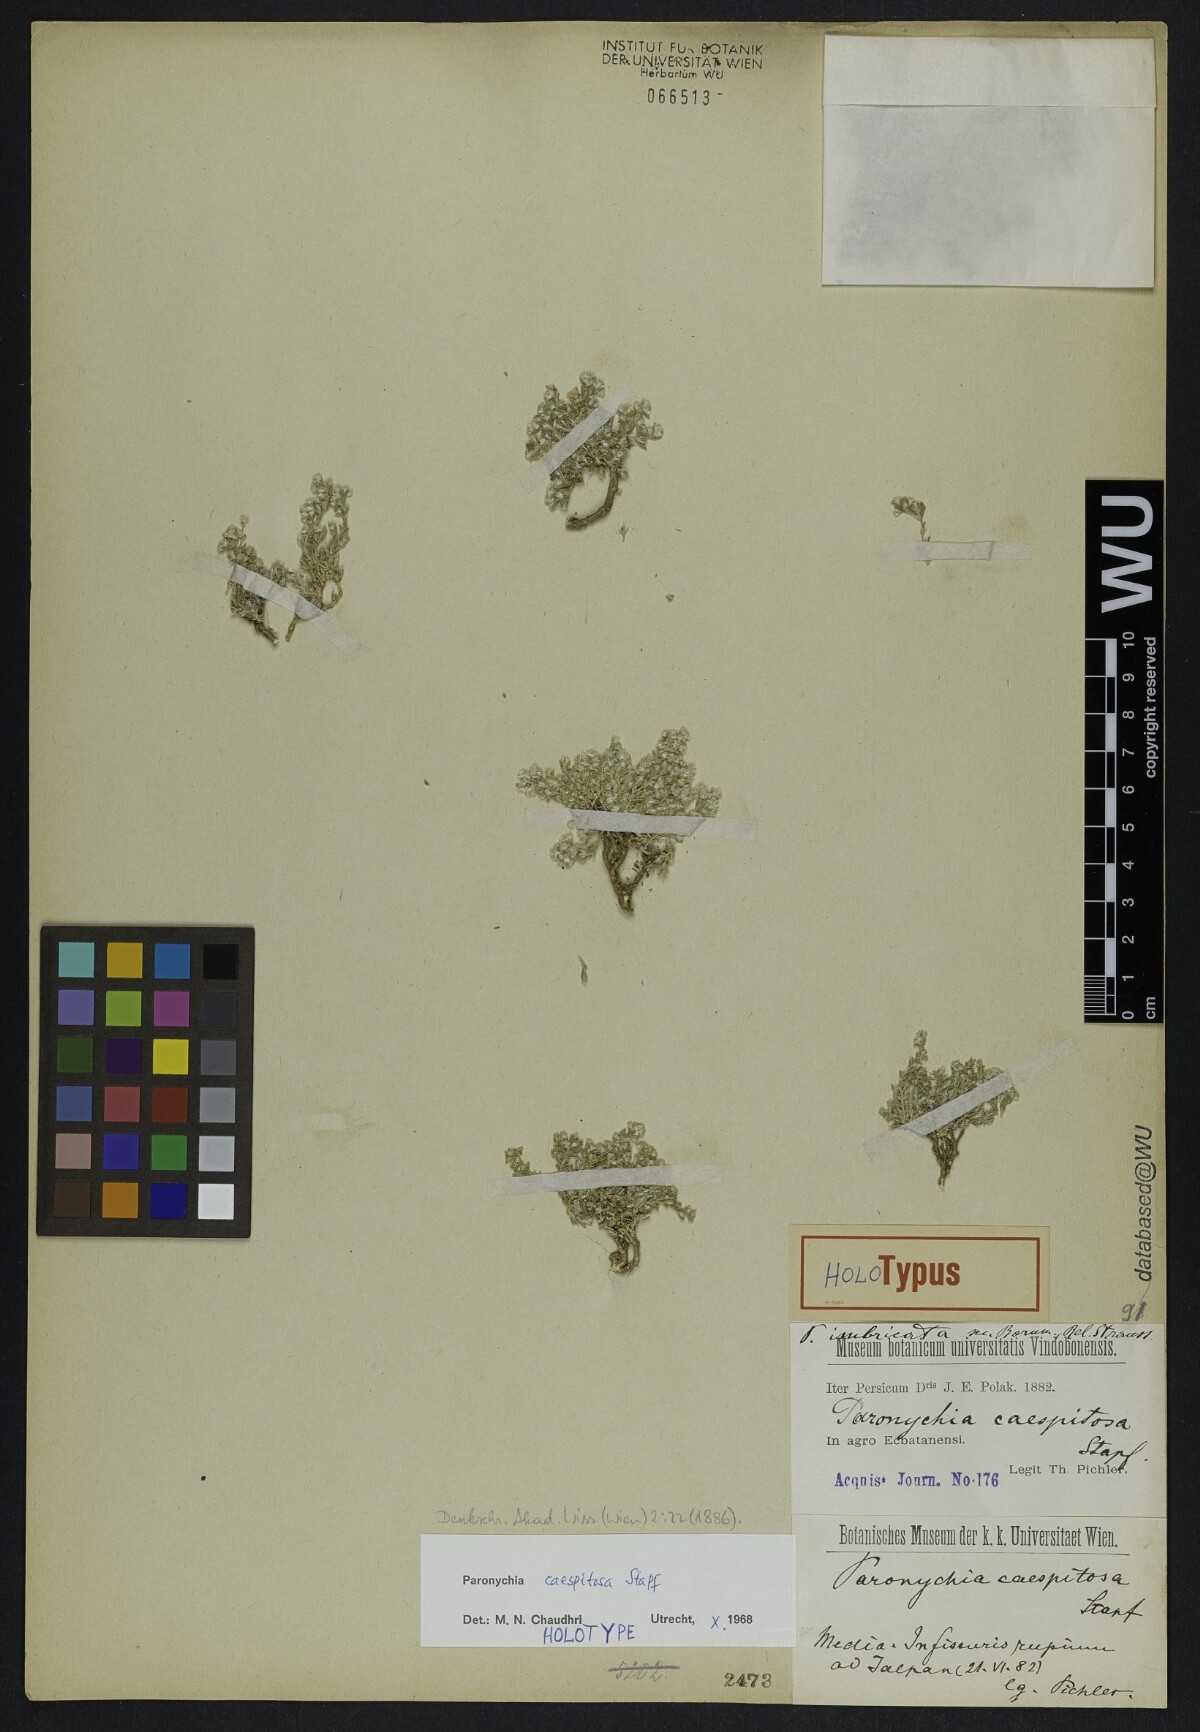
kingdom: Plantae
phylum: Tracheophyta
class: Magnoliopsida
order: Caryophyllales
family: Caryophyllaceae
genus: Paronychia
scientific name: Paronychia caespitosa
